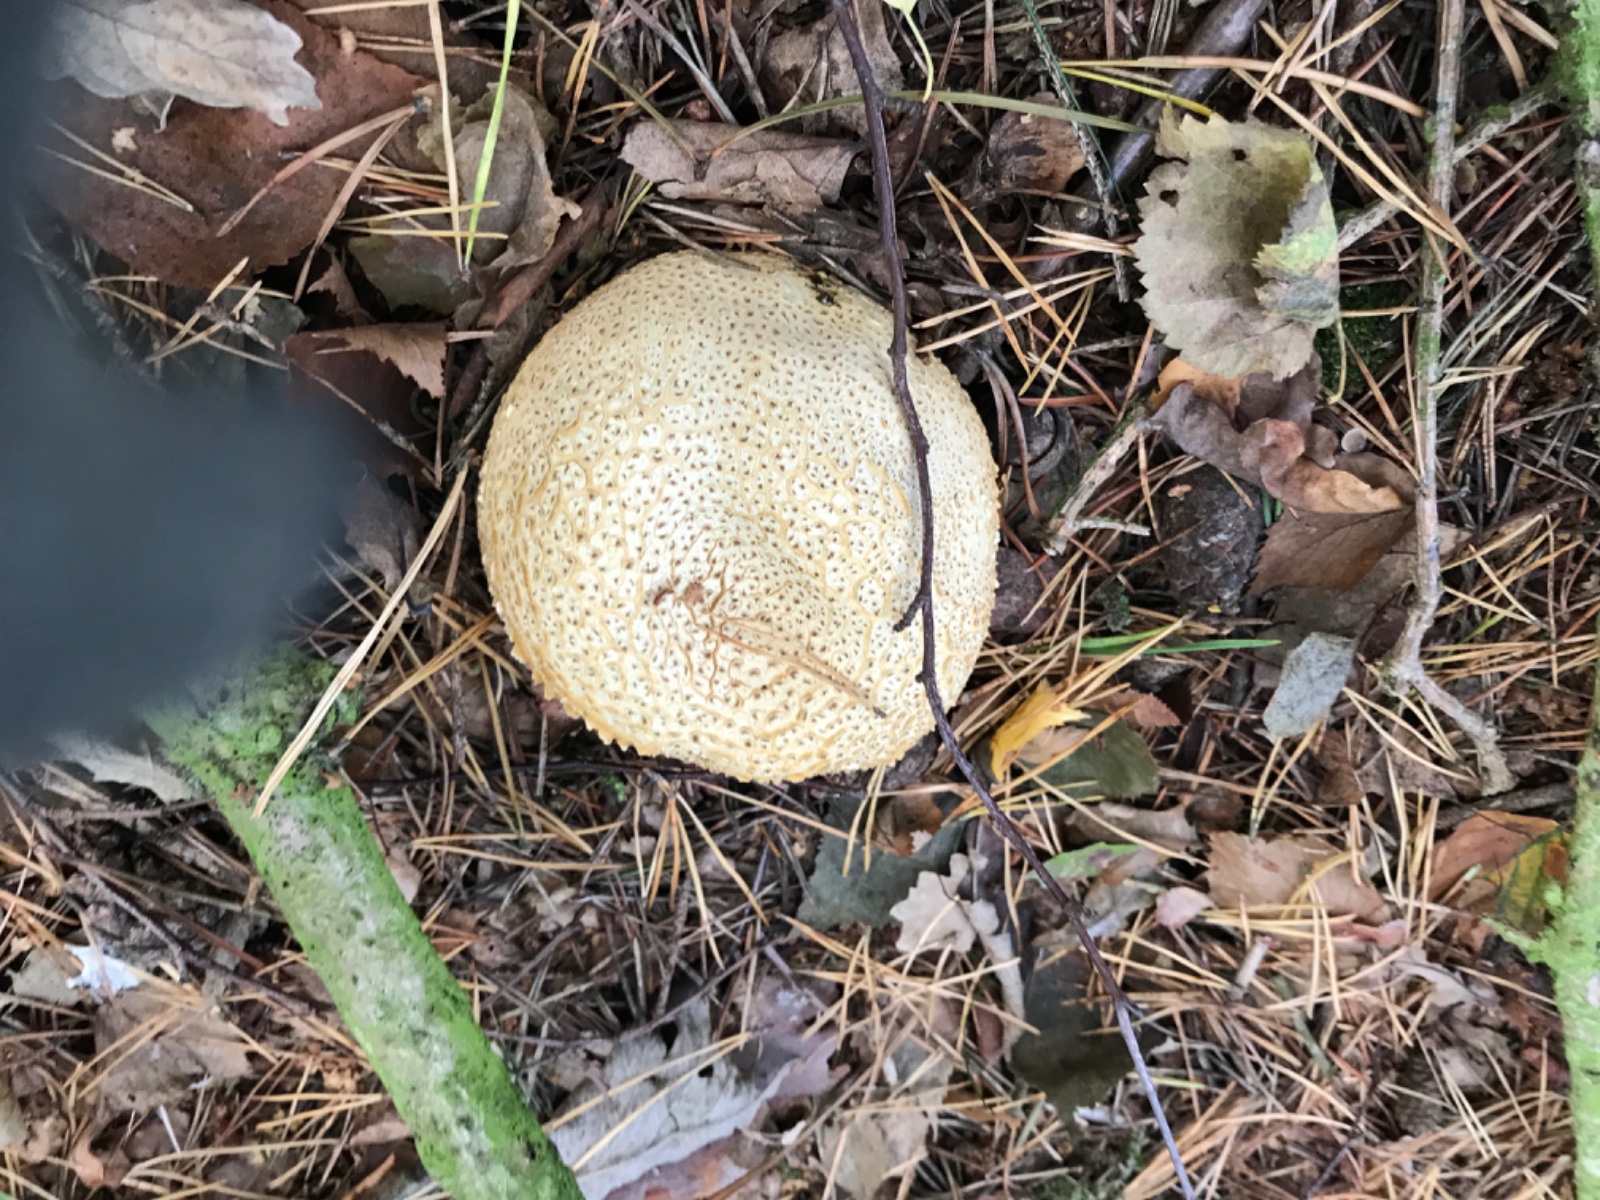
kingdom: Fungi
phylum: Basidiomycota
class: Agaricomycetes
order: Boletales
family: Sclerodermataceae
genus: Scleroderma
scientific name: Scleroderma citrinum
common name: almindelig bruskbold
